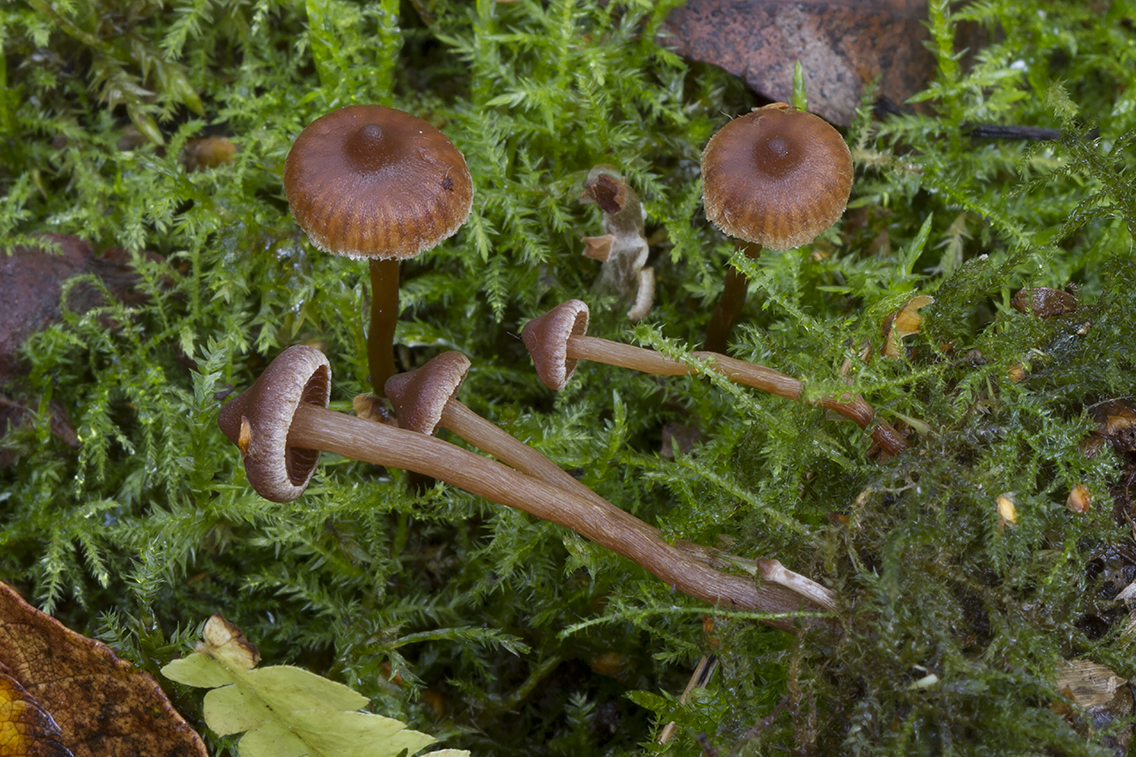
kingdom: Fungi
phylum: Basidiomycota
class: Agaricomycetes
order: Agaricales
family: Cortinariaceae
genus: Cortinarius
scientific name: Cortinarius paululus
